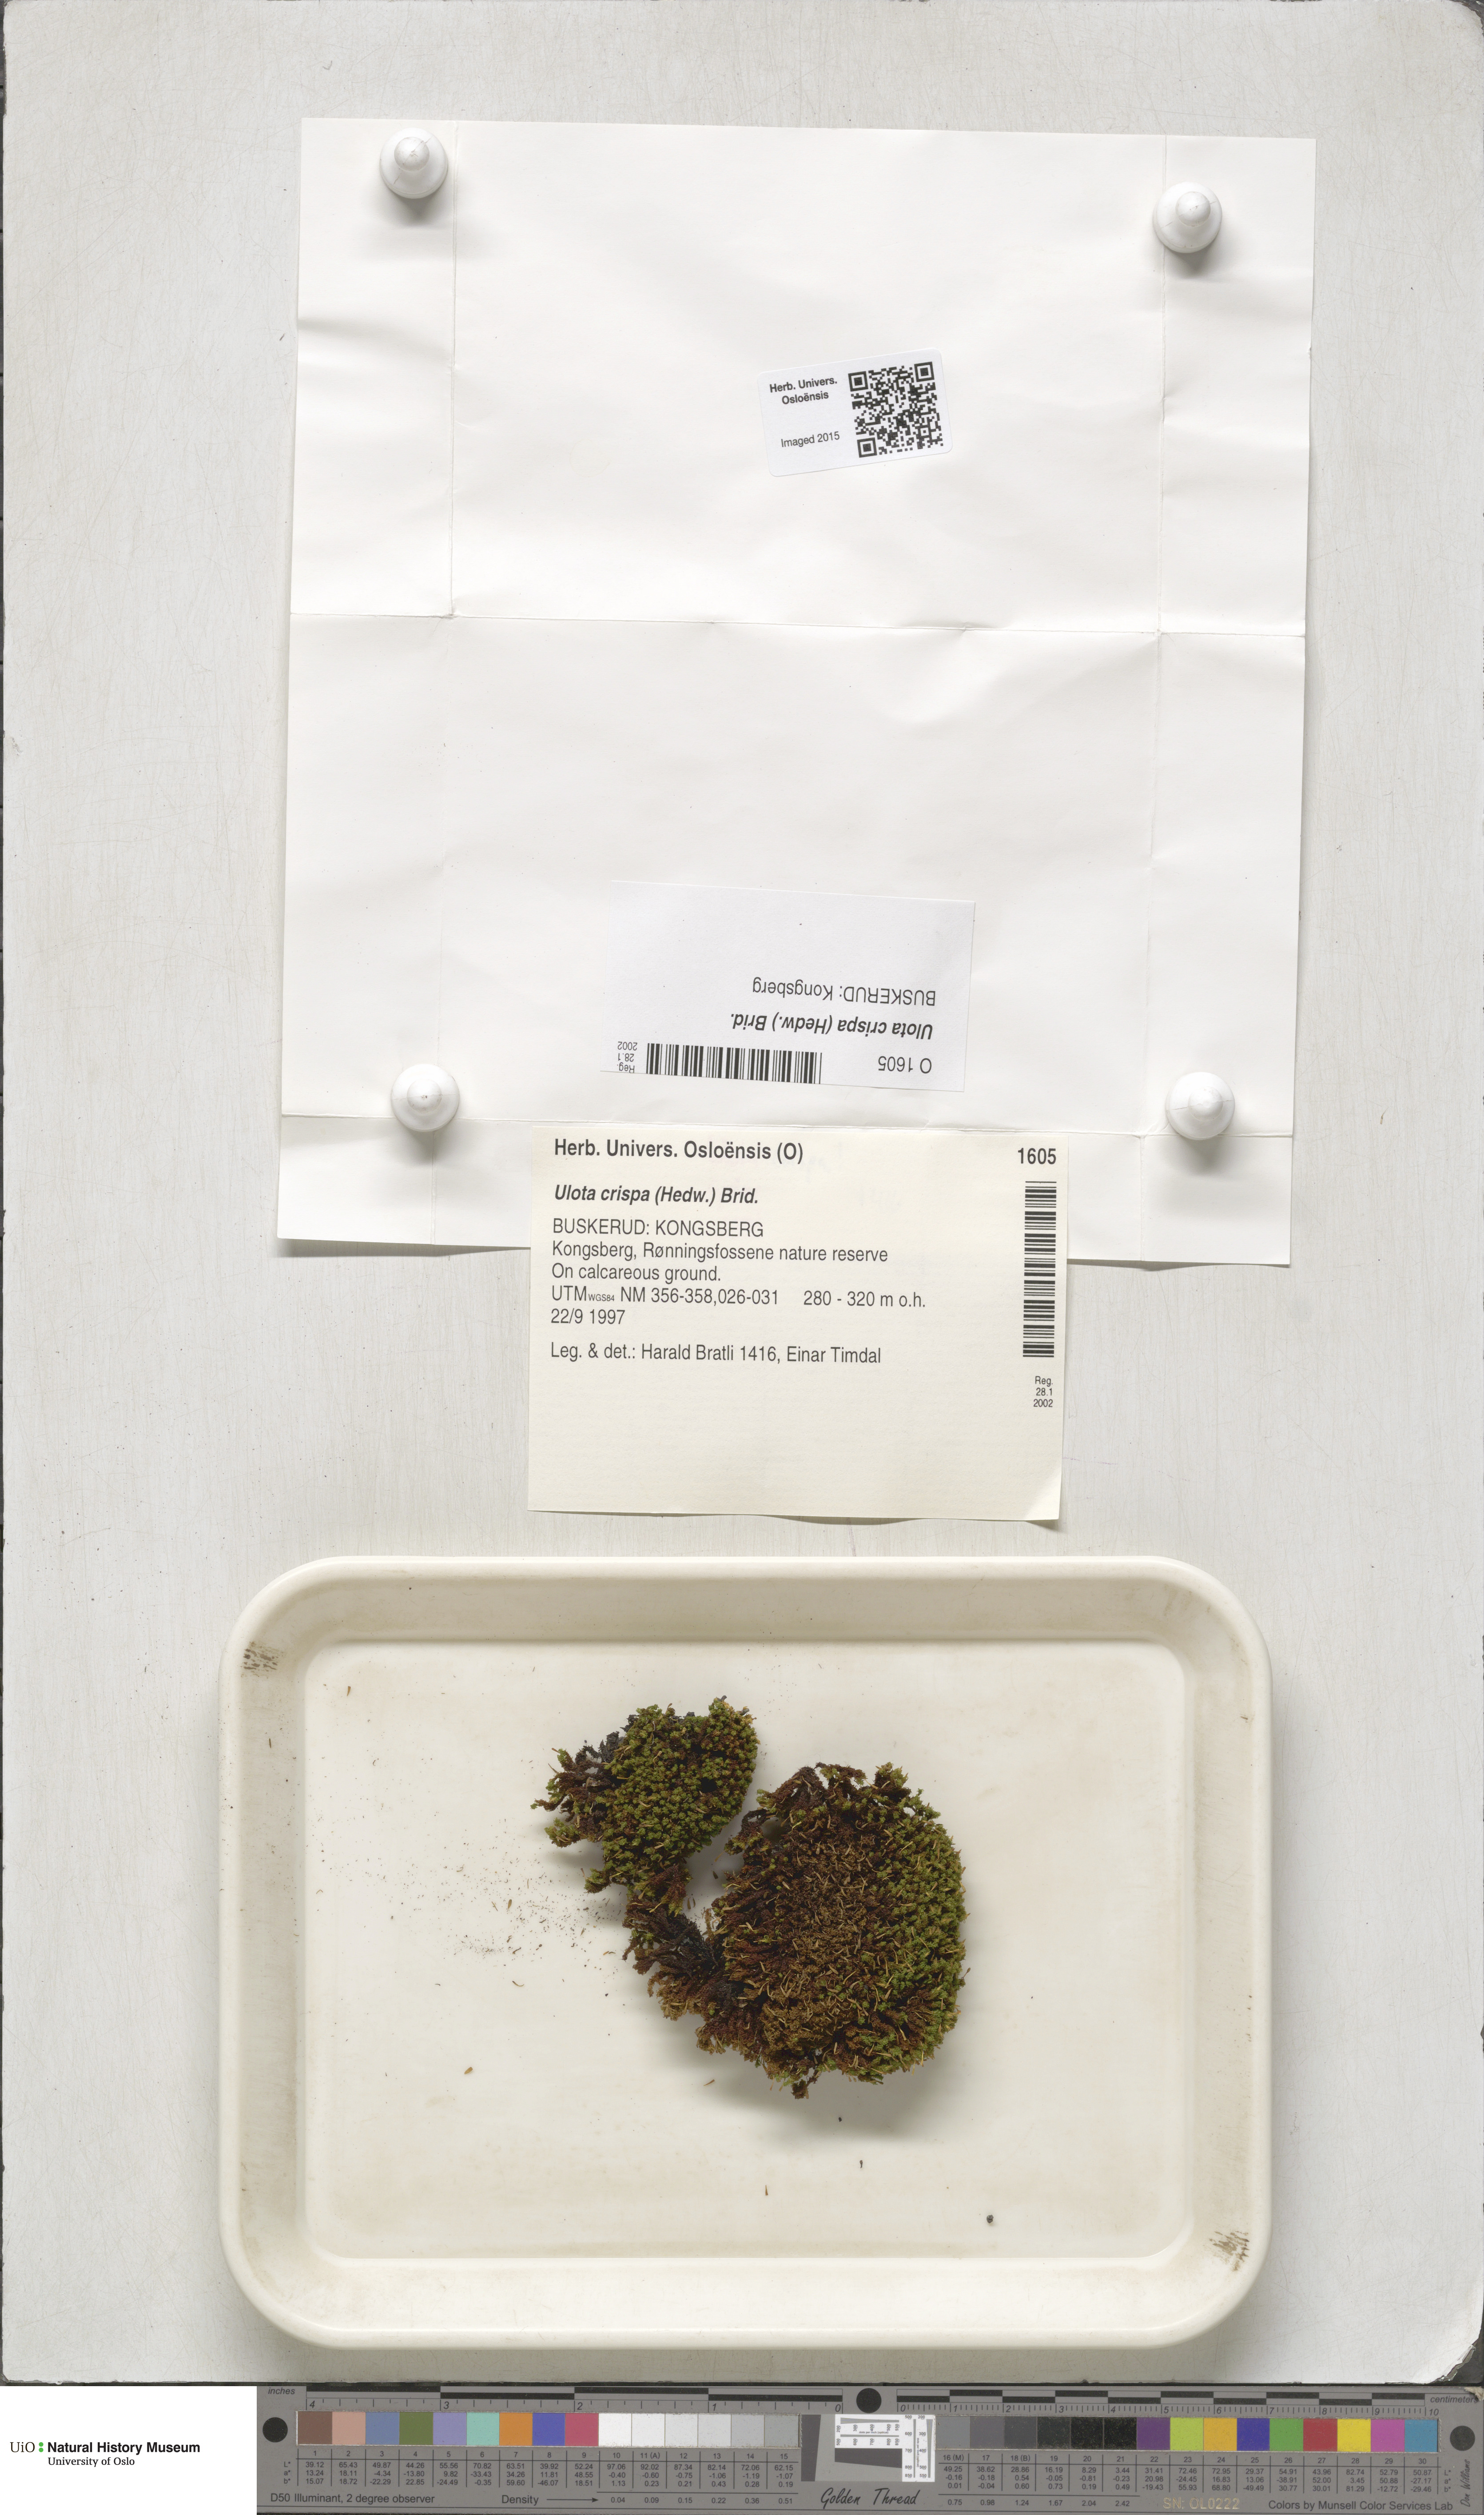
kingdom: Plantae
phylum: Bryophyta
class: Bryopsida
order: Orthotrichales
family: Orthotrichaceae
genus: Ulota
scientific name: Ulota crispa
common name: Crisped pincushion moss
